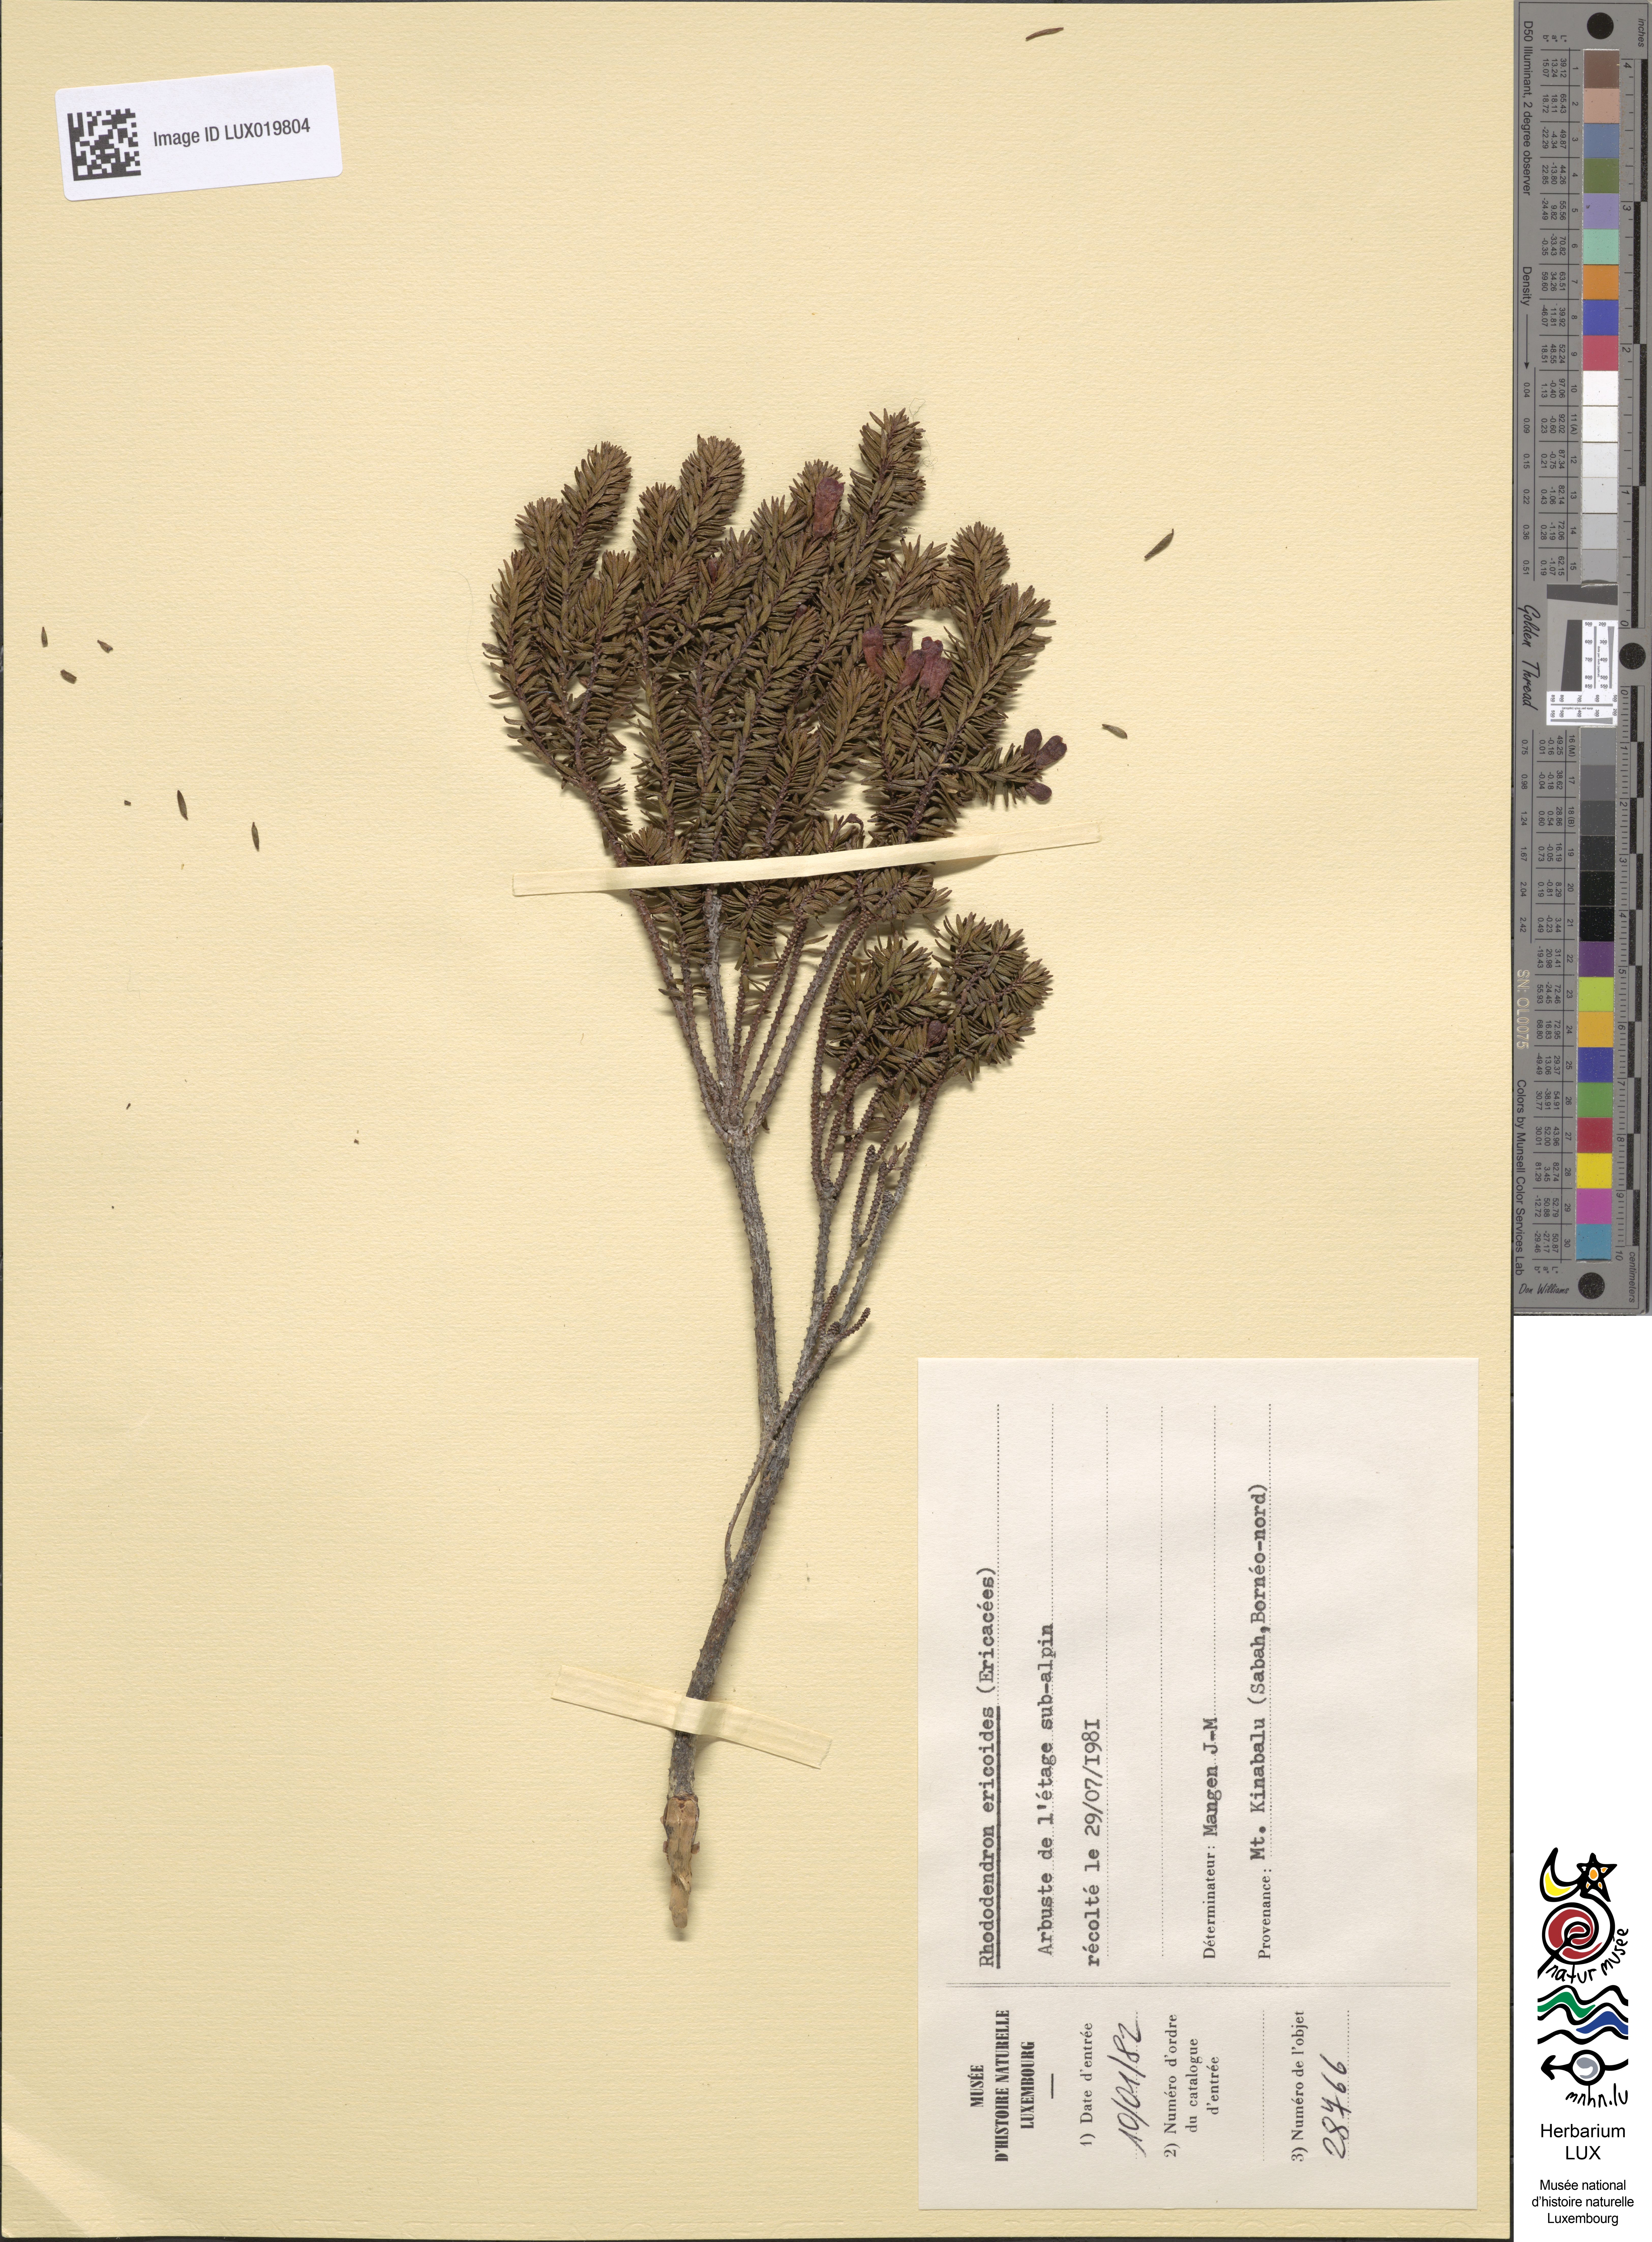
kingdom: Plantae
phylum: Tracheophyta
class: Magnoliopsida
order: Ericales
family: Ericaceae
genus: Rhododendron
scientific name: Rhododendron ericoides
